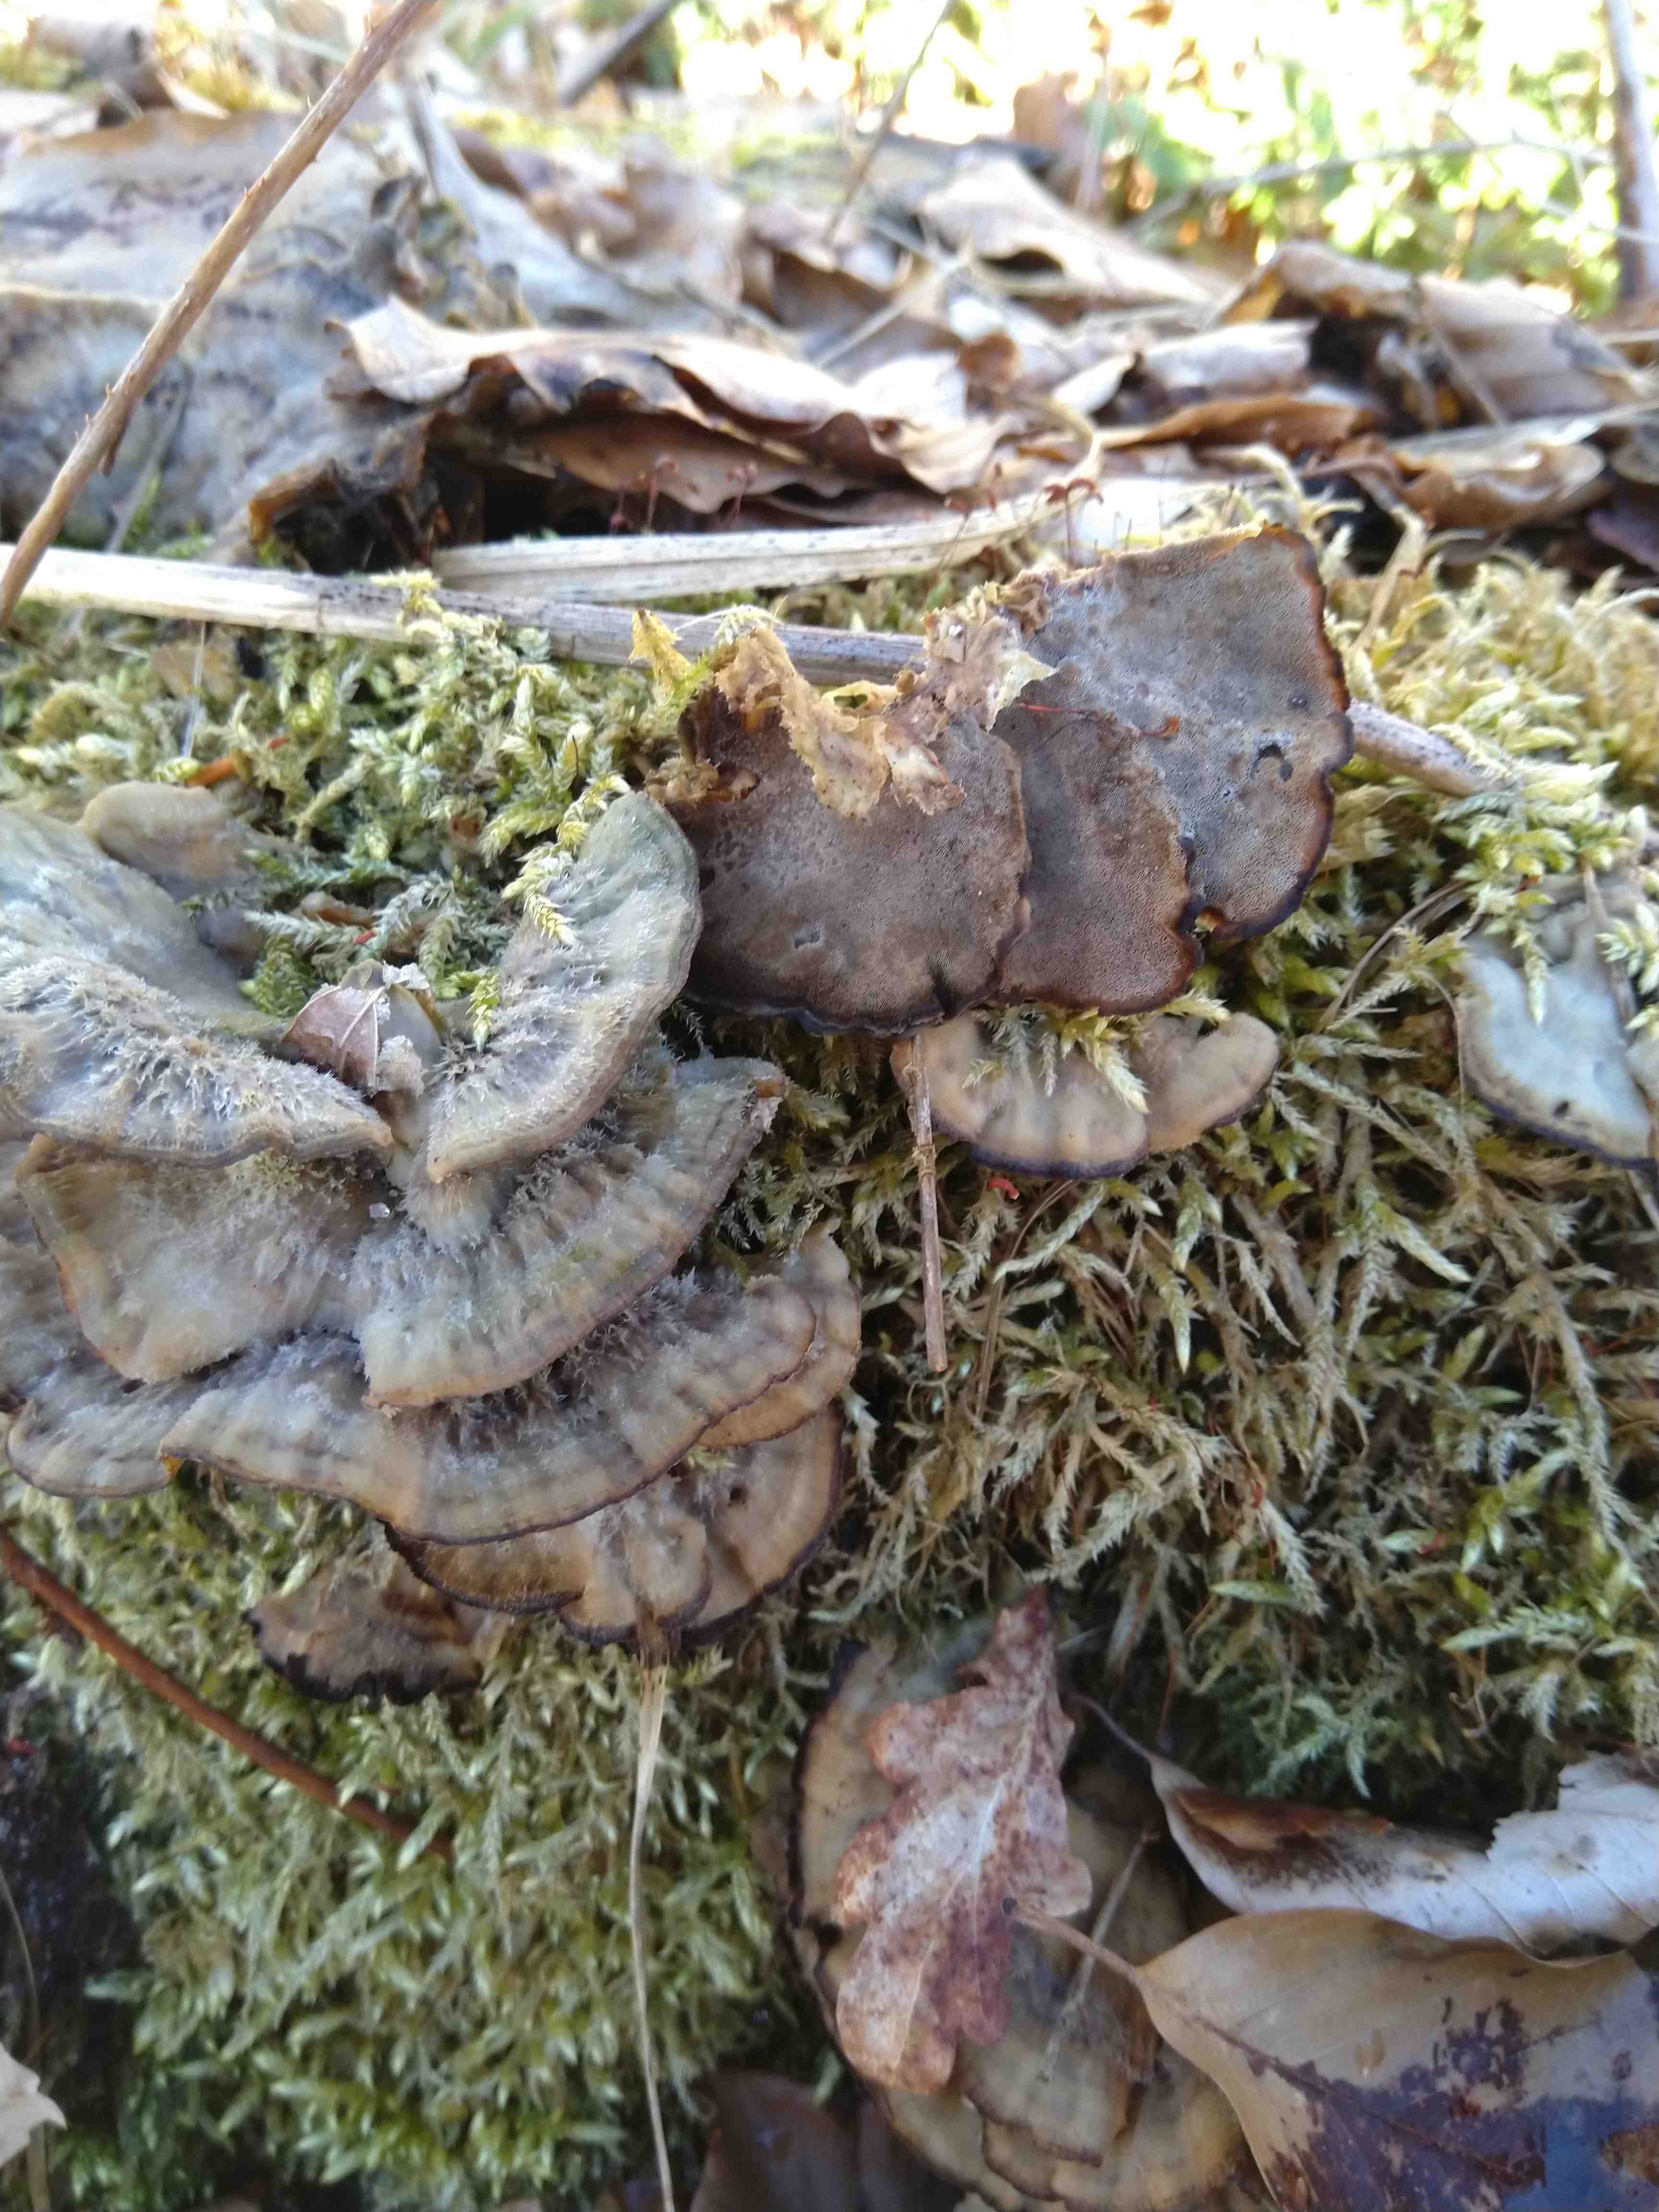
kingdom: Fungi
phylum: Basidiomycota
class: Agaricomycetes
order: Polyporales
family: Phanerochaetaceae
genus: Bjerkandera
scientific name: Bjerkandera adusta
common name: sveden sodporesvamp
